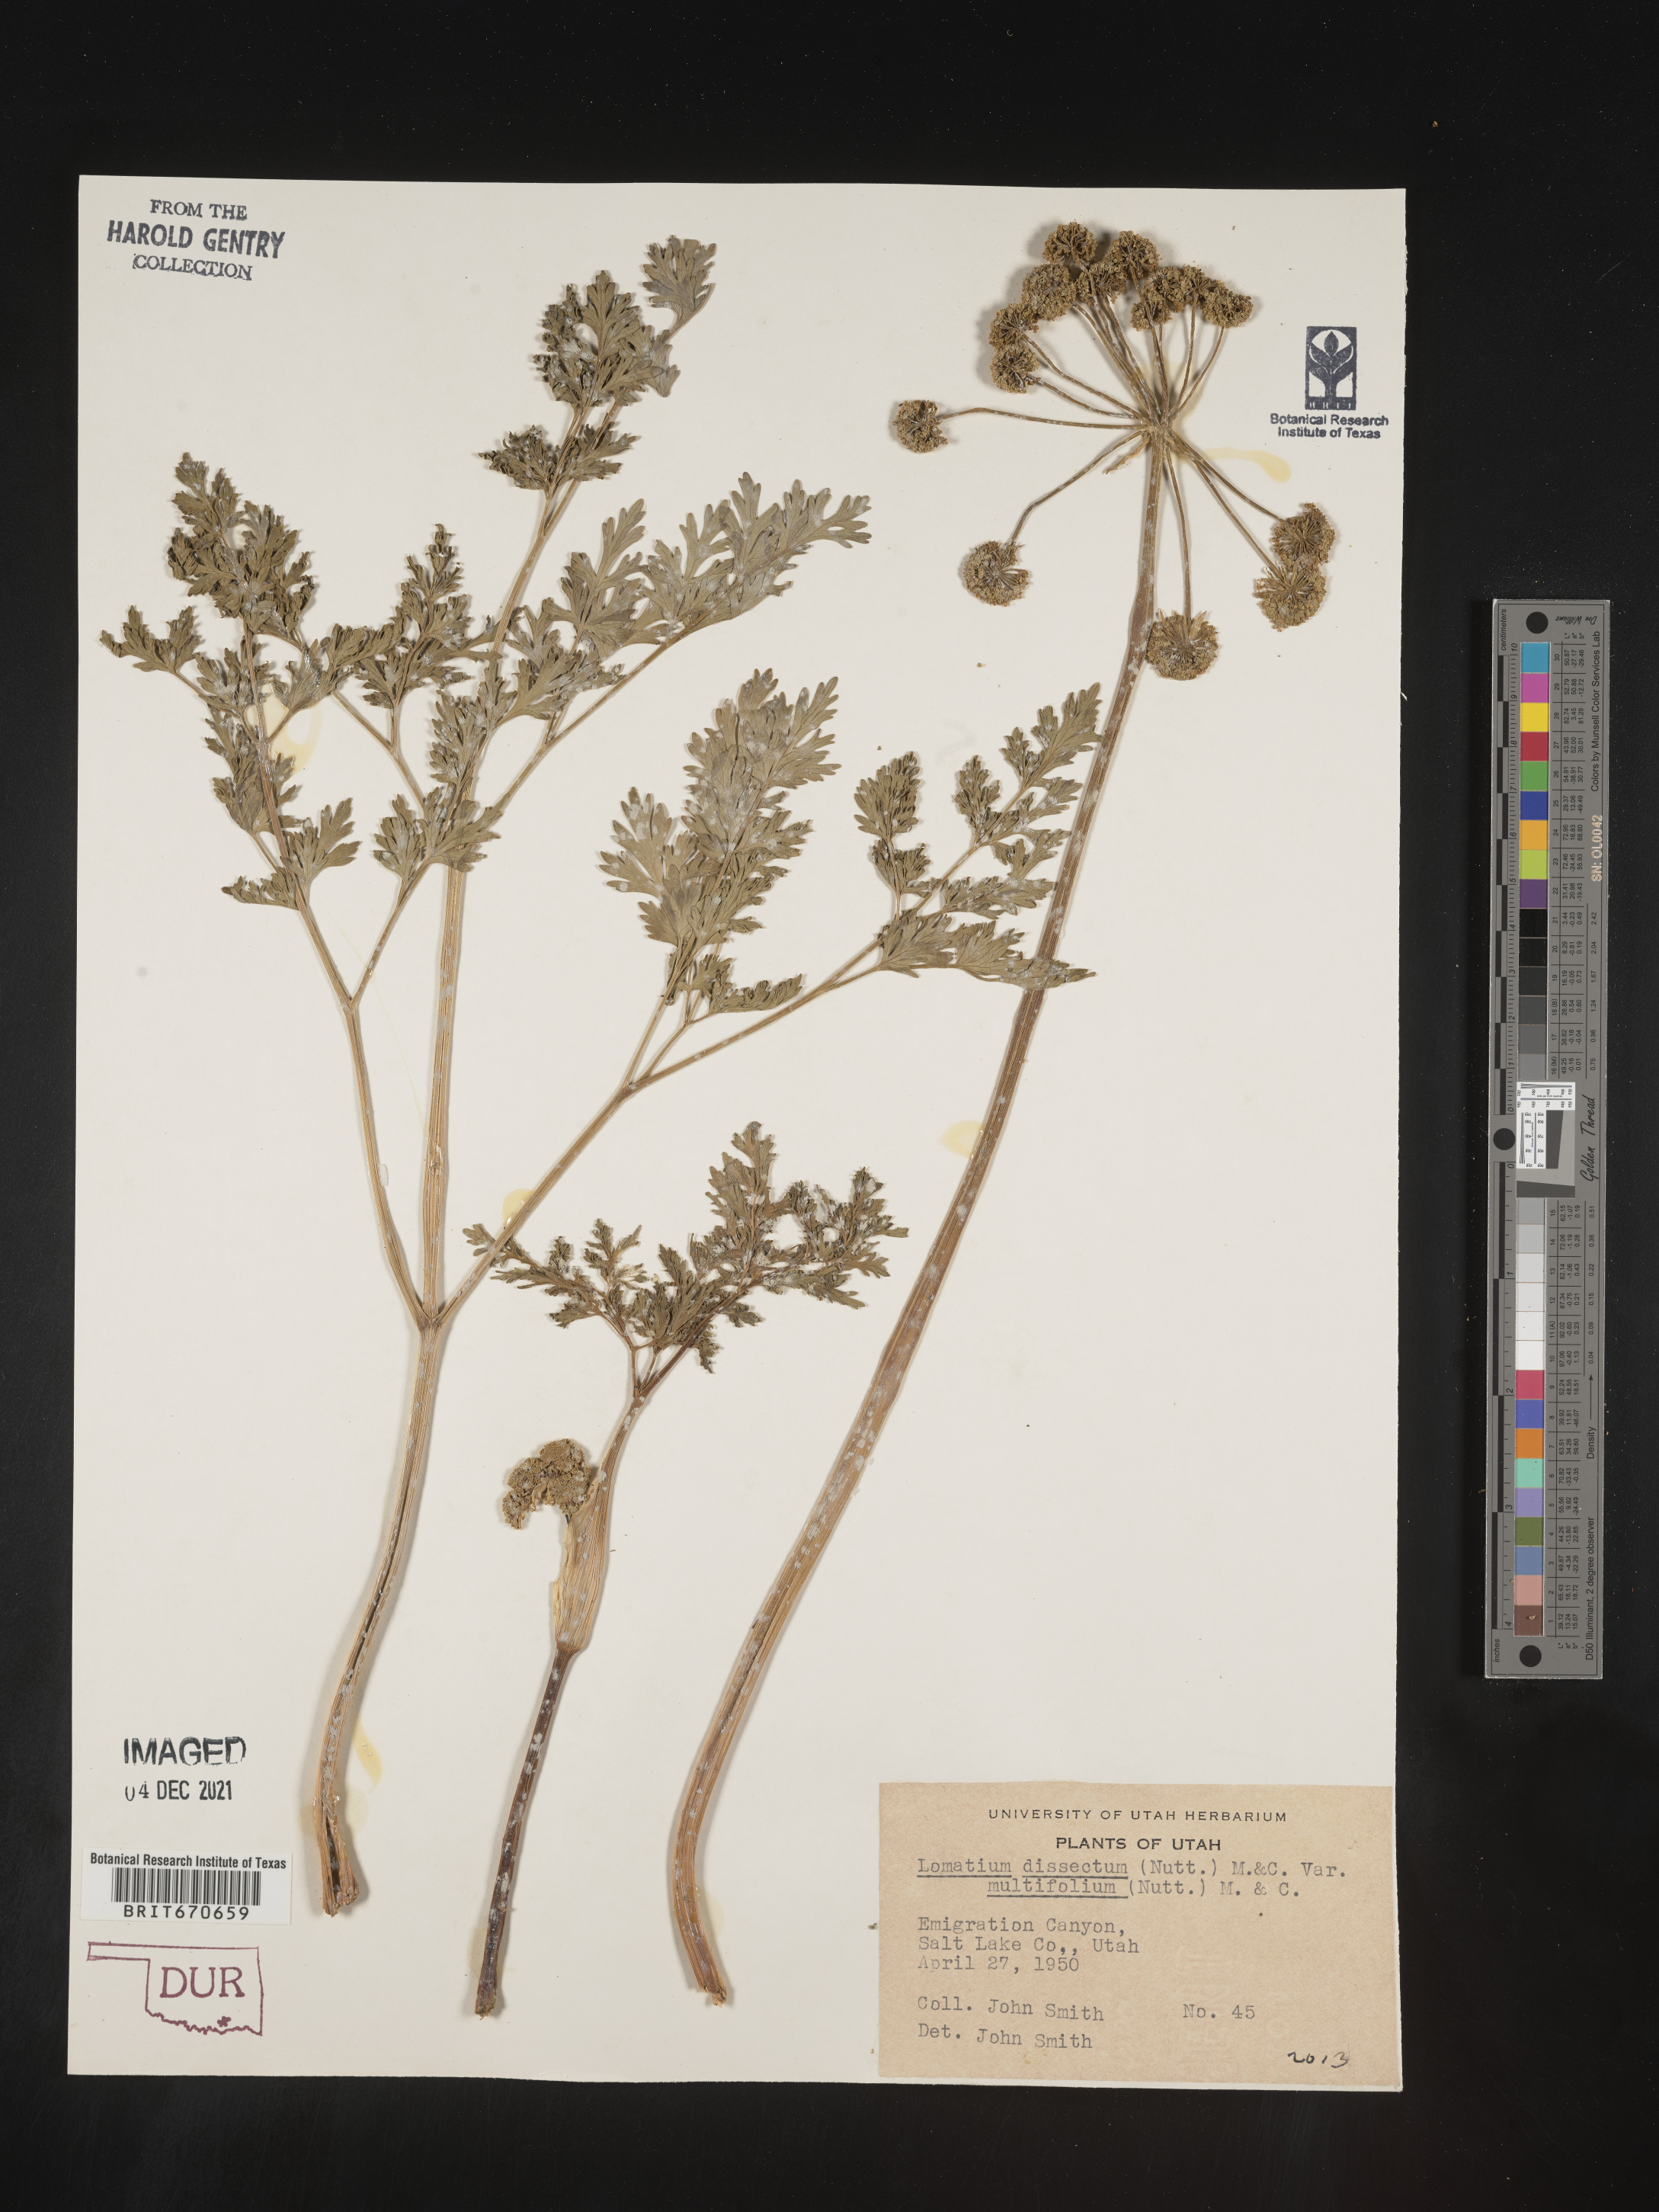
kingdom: Plantae
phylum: Tracheophyta
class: Magnoliopsida
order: Apiales
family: Apiaceae
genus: Lomatium
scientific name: Lomatium dissectum
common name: Lomatium
